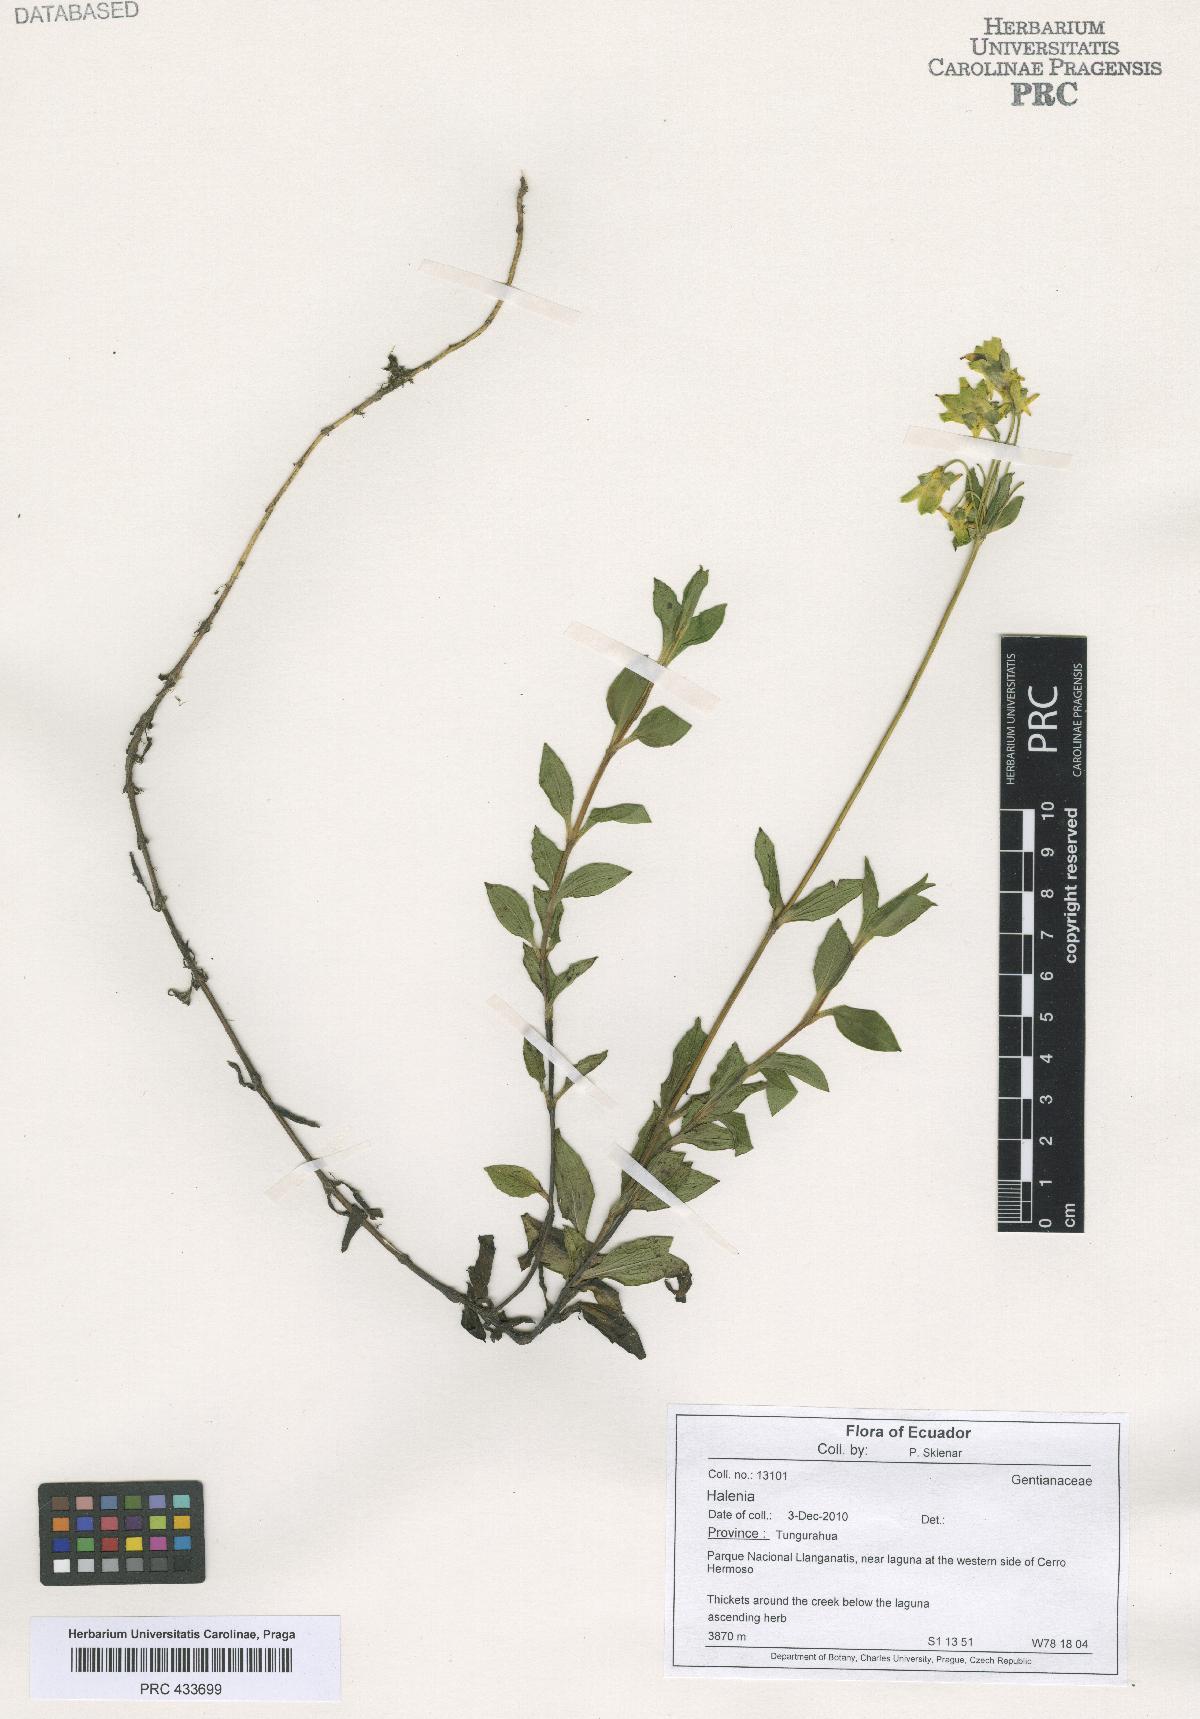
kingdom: Plantae
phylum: Tracheophyta
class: Magnoliopsida
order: Gentianales
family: Gentianaceae
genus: Halenia
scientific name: Halenia
